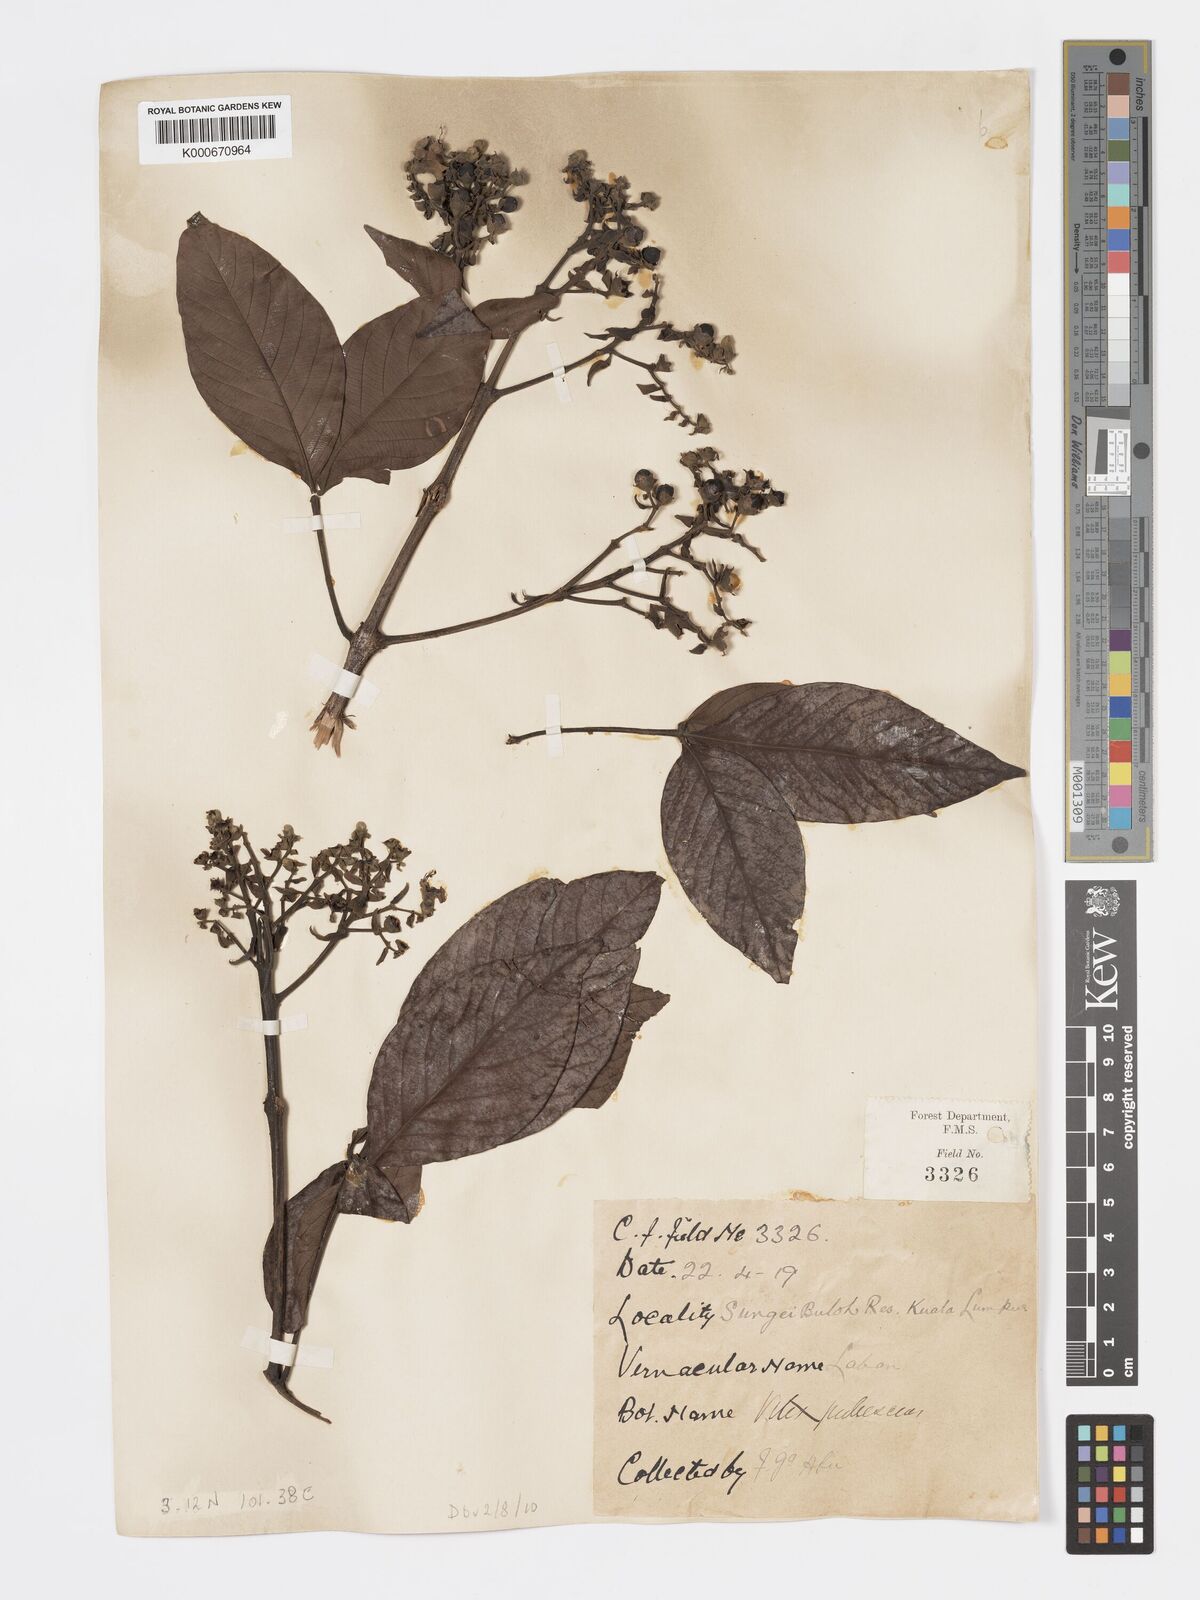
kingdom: Plantae
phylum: Tracheophyta
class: Magnoliopsida
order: Lamiales
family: Lamiaceae
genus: Vitex
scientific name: Vitex pinnata
